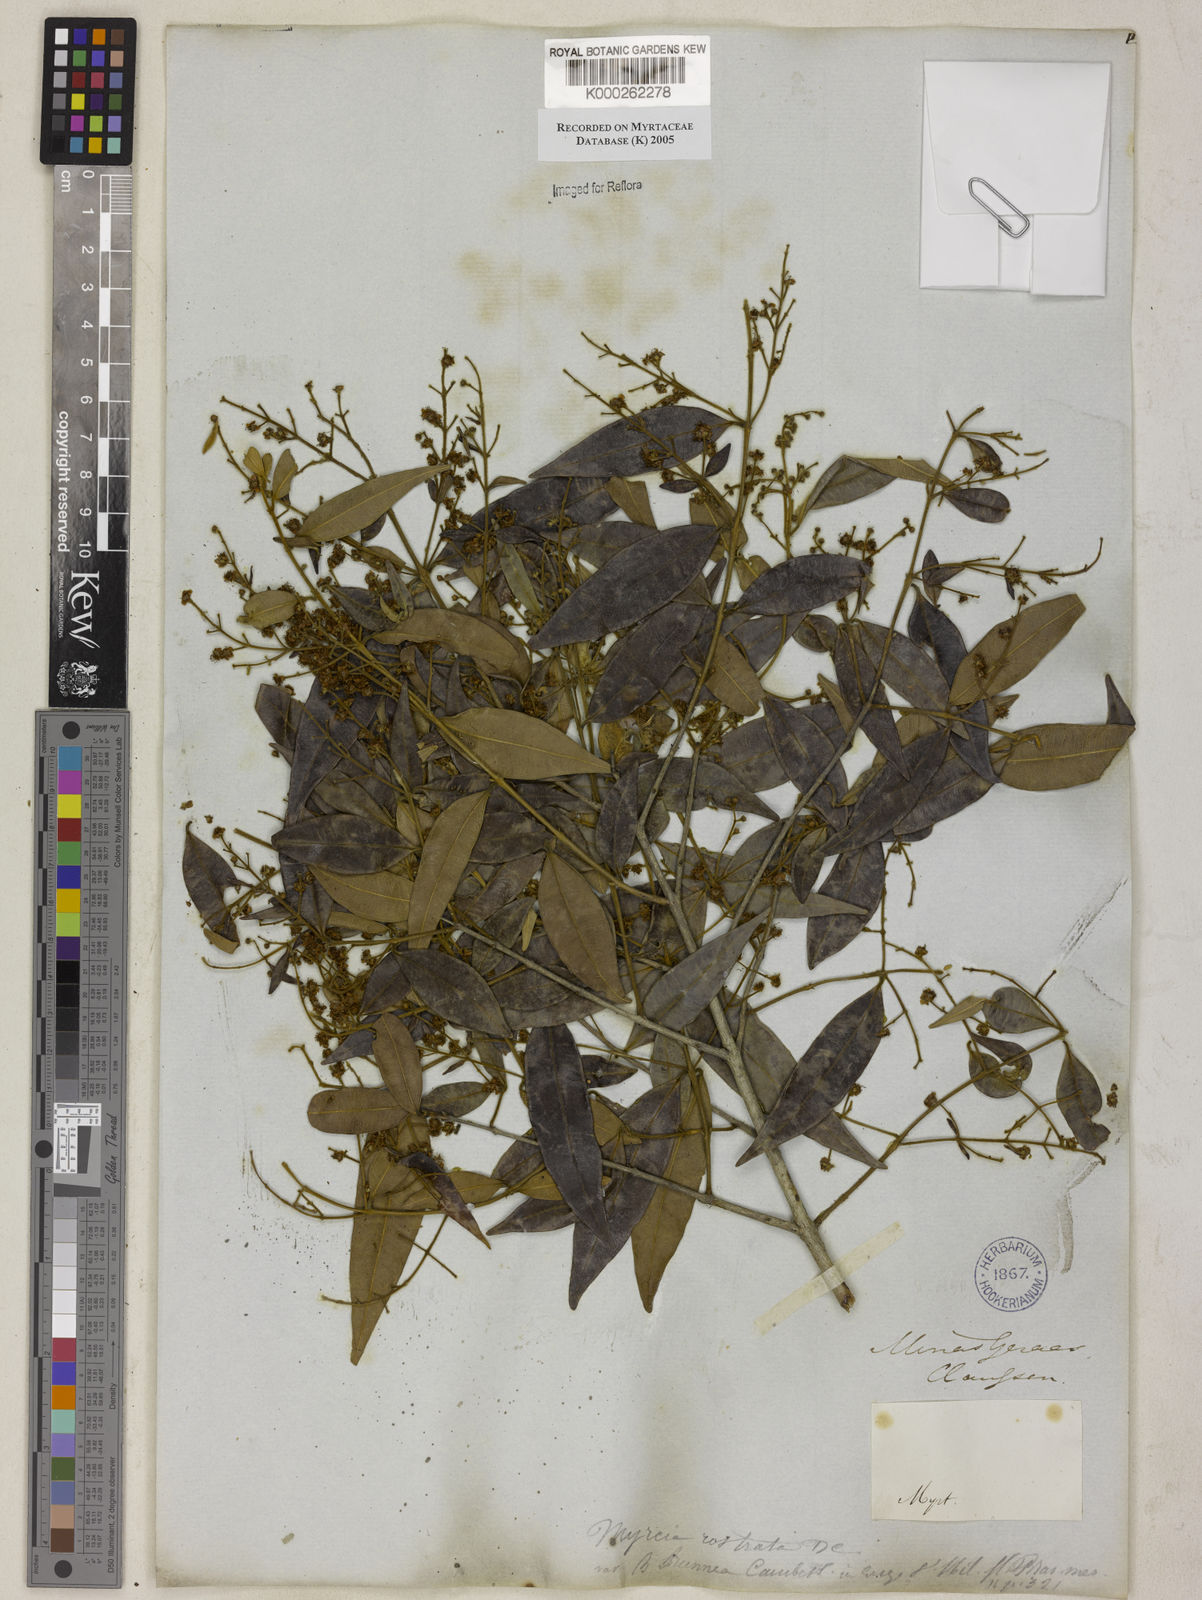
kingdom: Plantae
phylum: Tracheophyta
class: Magnoliopsida
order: Myrtales
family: Myrtaceae
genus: Myrcia
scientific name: Myrcia splendens
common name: Surinam cherry
